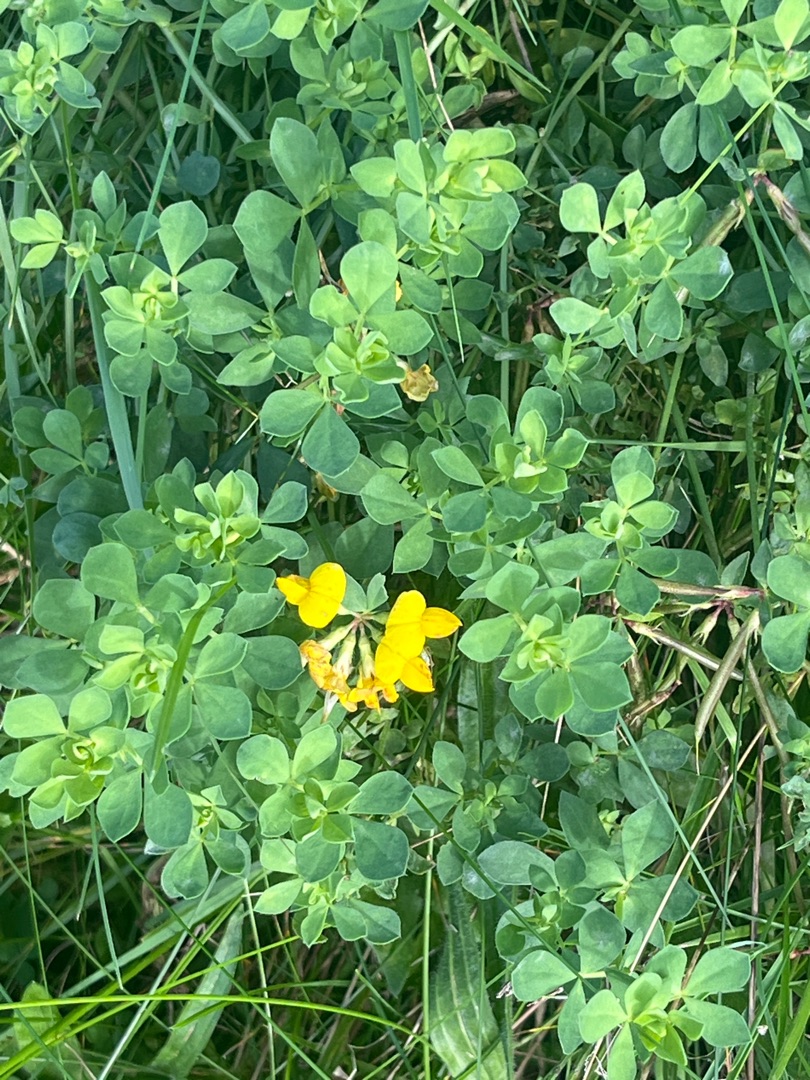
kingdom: Plantae
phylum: Tracheophyta
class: Magnoliopsida
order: Fabales
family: Fabaceae
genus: Lotus
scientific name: Lotus corniculatus
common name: Almindelig kællingetand
